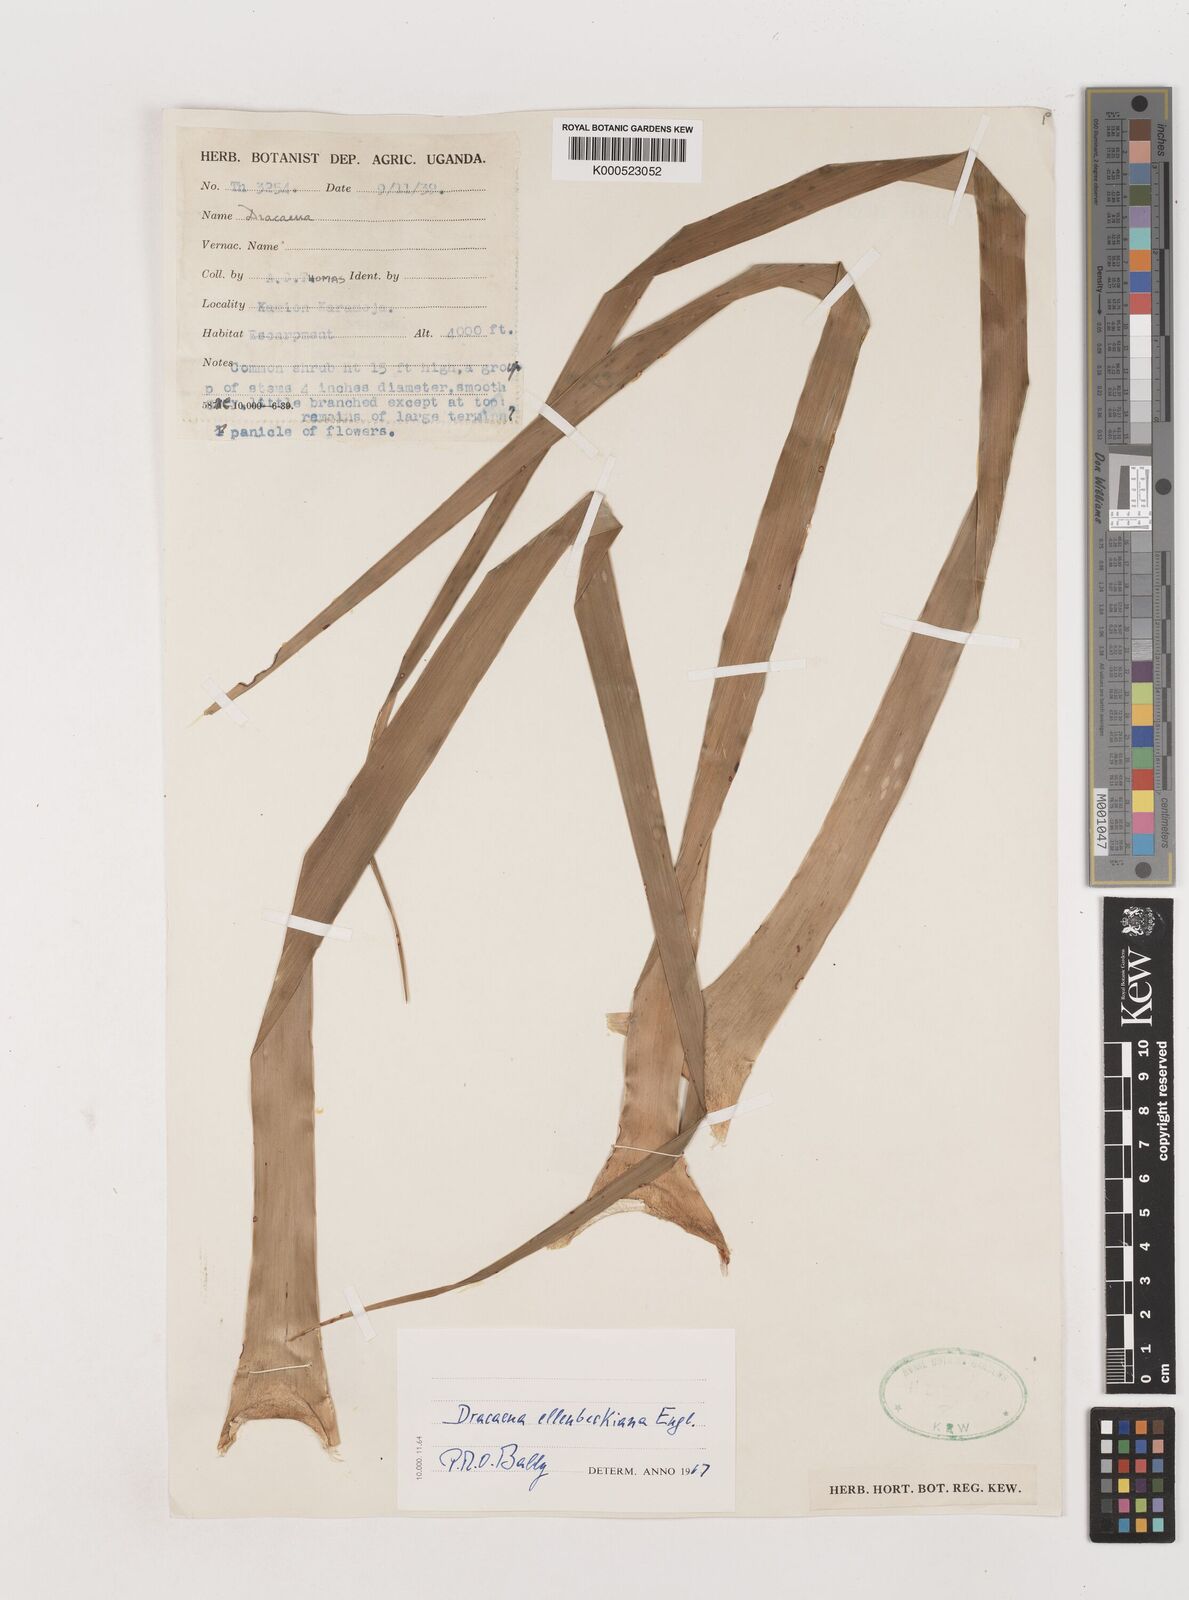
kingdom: Plantae
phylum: Tracheophyta
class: Liliopsida
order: Asparagales
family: Asparagaceae
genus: Dracaena
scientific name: Dracaena ellenbeckiana
